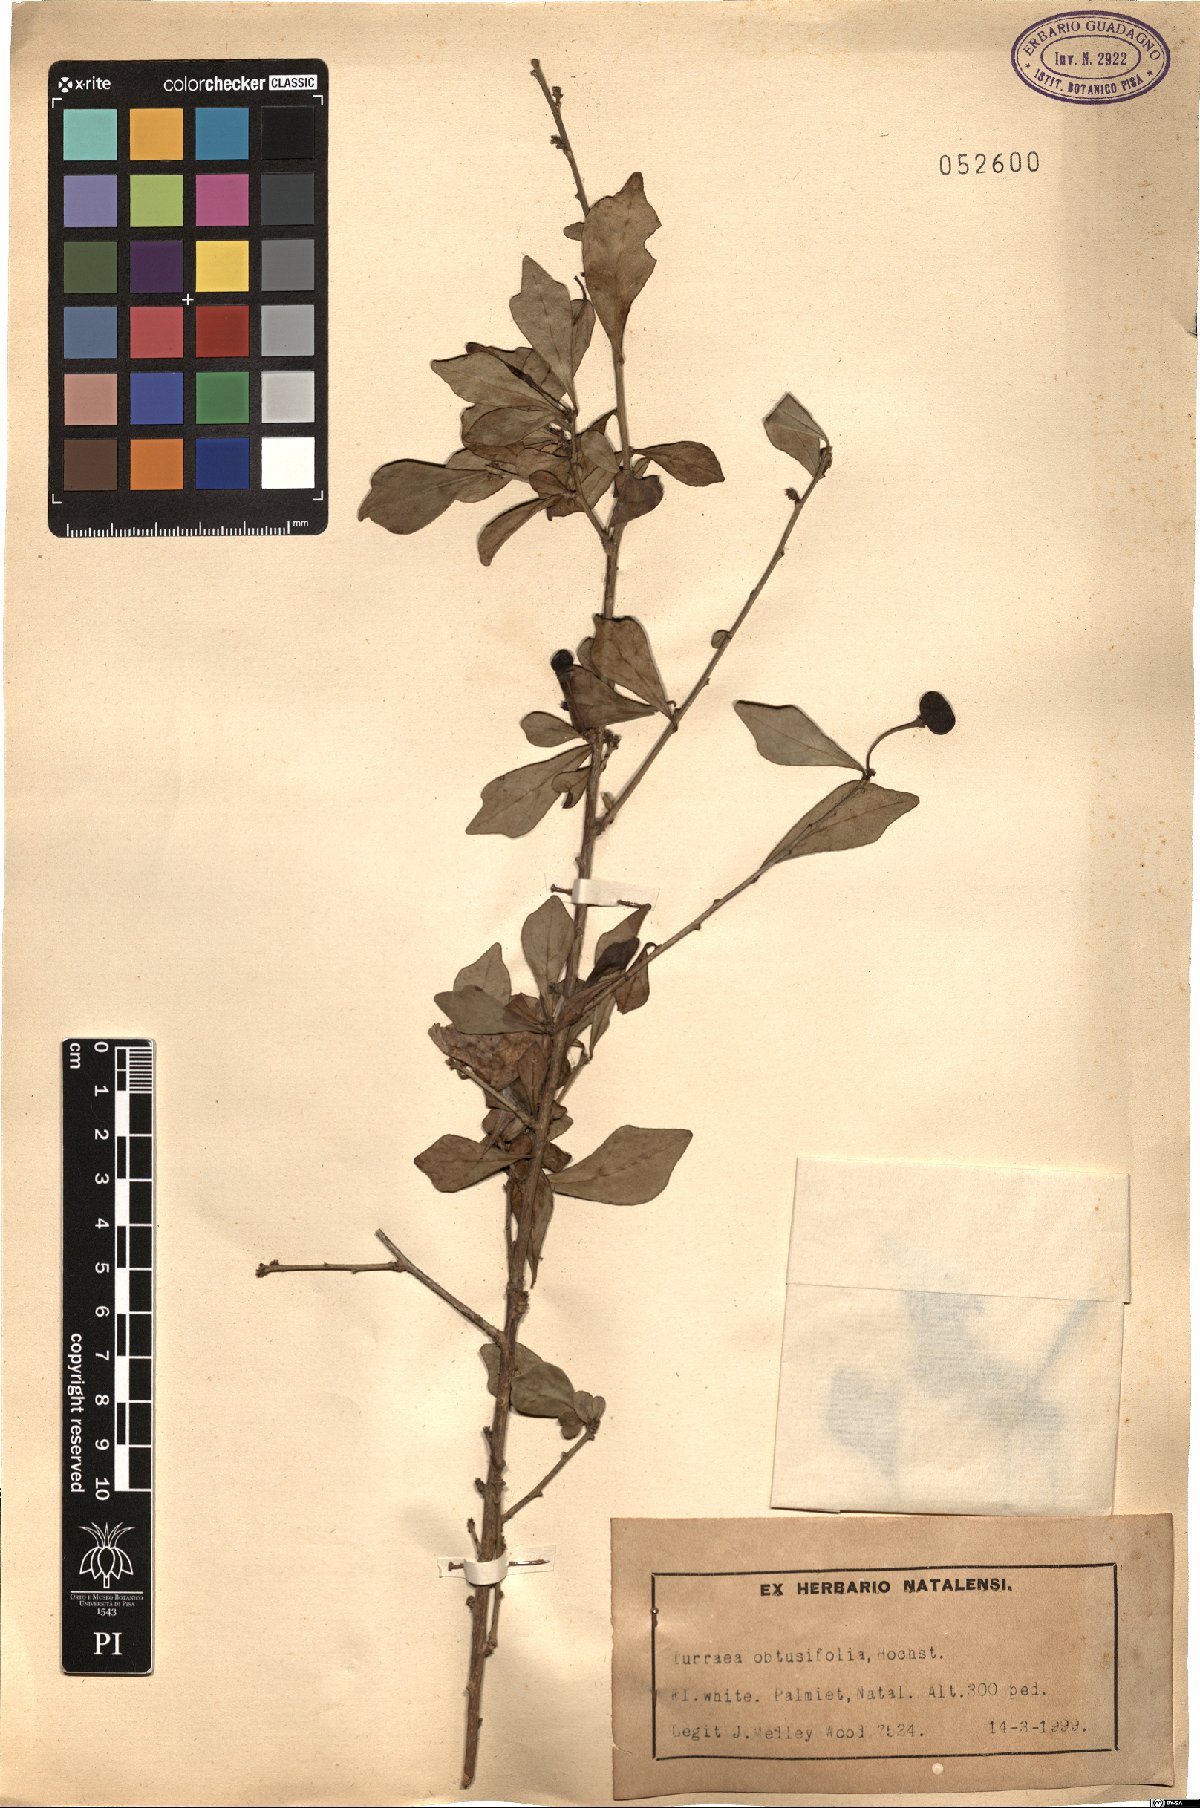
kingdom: Plantae
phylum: Tracheophyta
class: Magnoliopsida
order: Sapindales
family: Meliaceae
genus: Turraea
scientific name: Turraea obtusifolia
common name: Small honeysuckle tree
